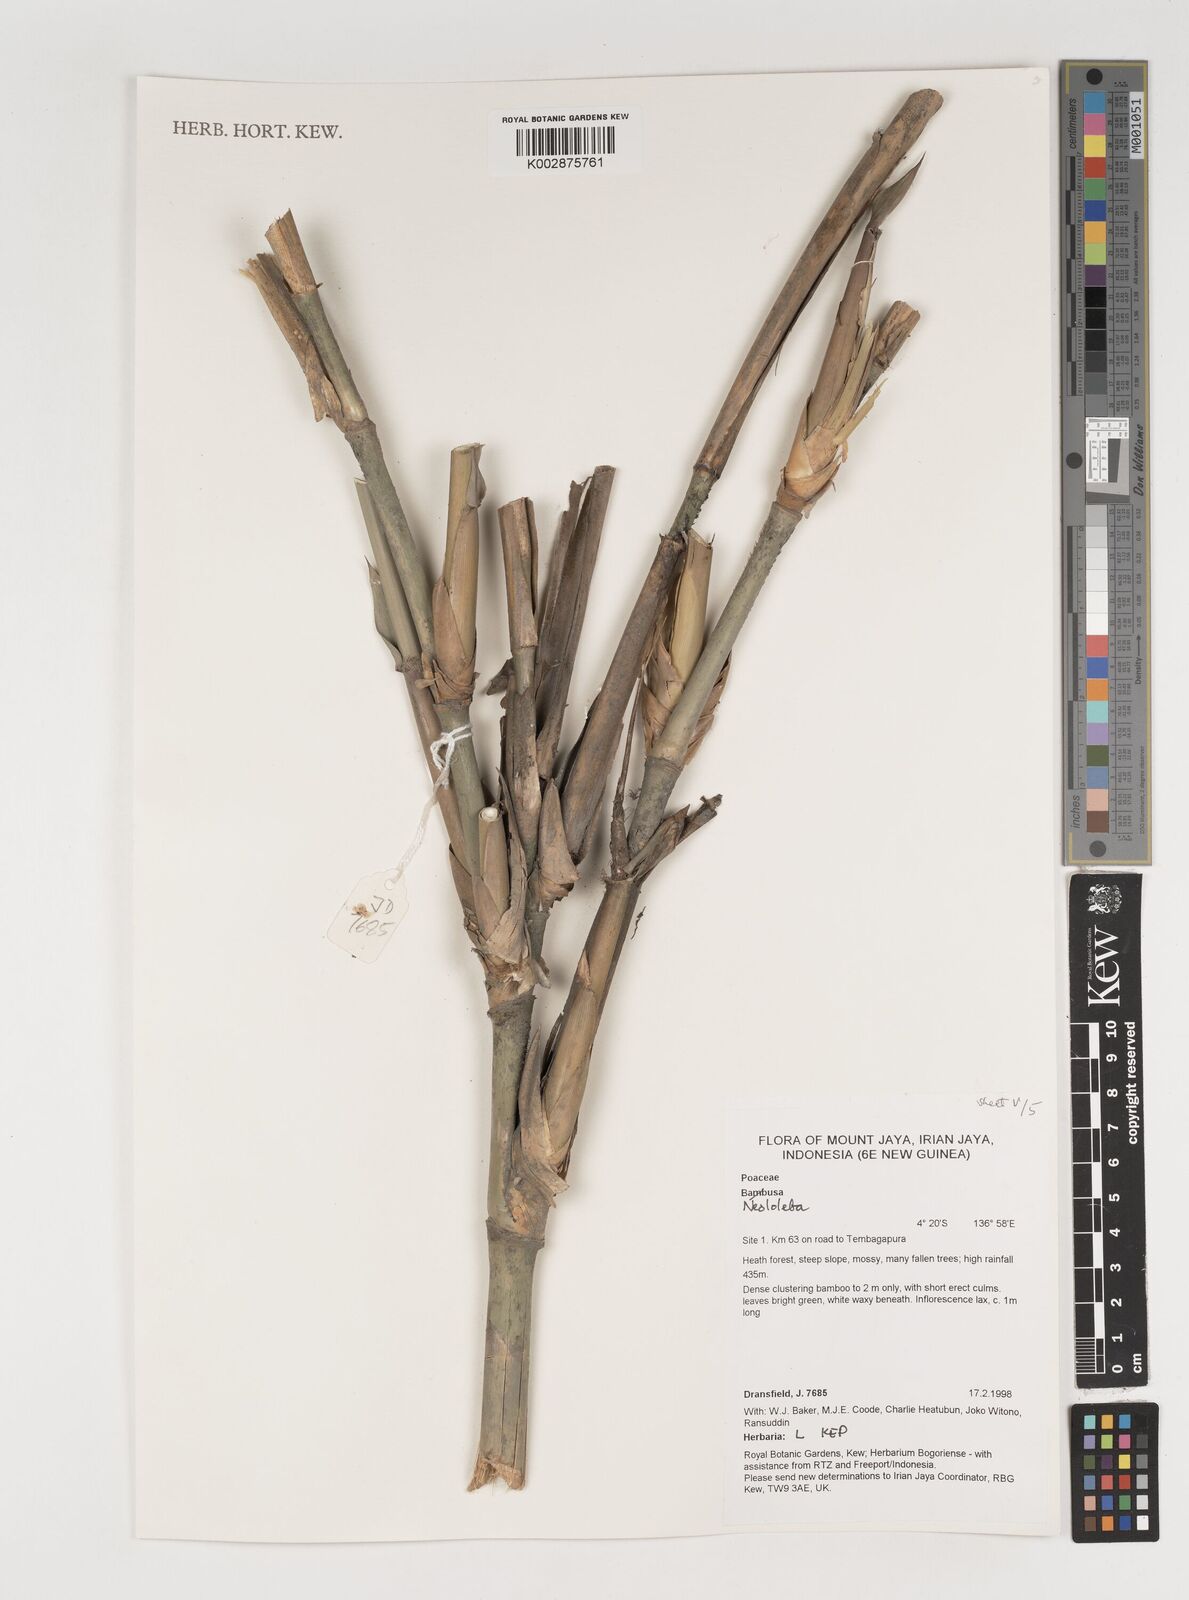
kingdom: Plantae
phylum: Tracheophyta
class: Liliopsida
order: Poales
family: Poaceae
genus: Neololeba
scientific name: Neololeba
